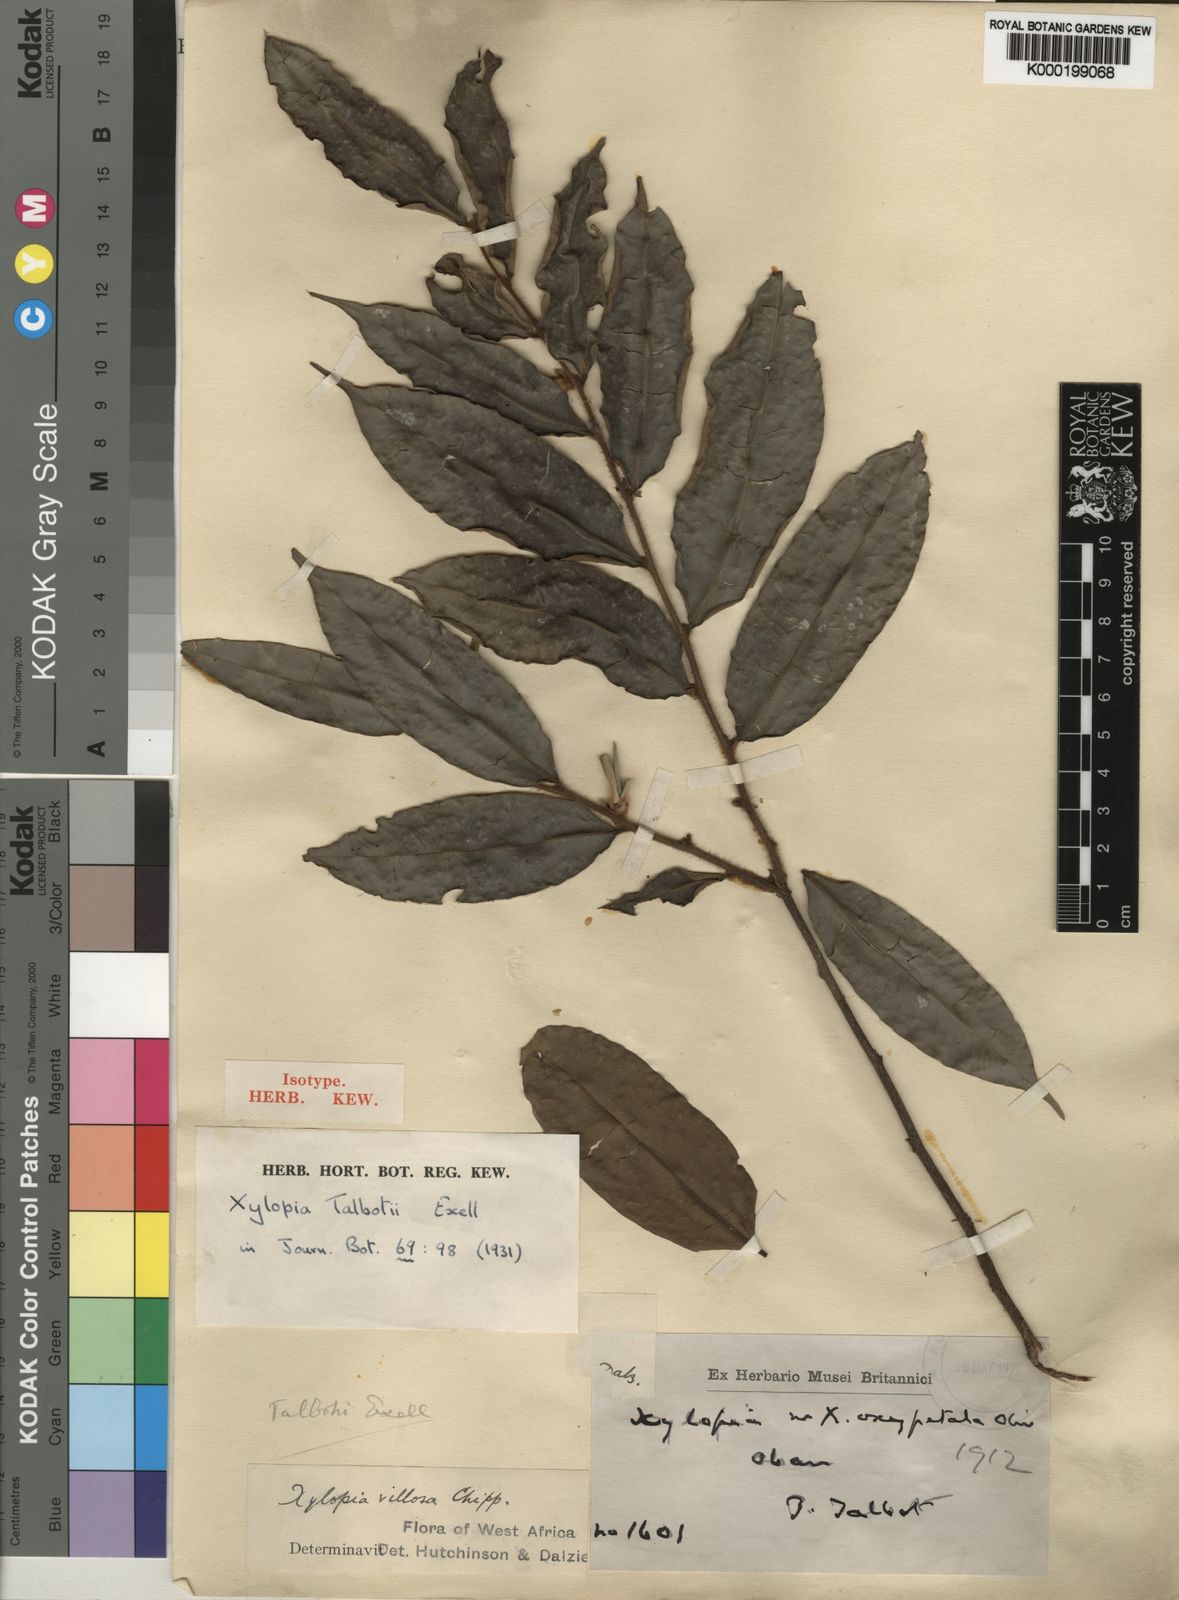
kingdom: Plantae
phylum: Tracheophyta
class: Magnoliopsida
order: Magnoliales
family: Annonaceae
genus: Xylopia
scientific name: Xylopia talbotii
